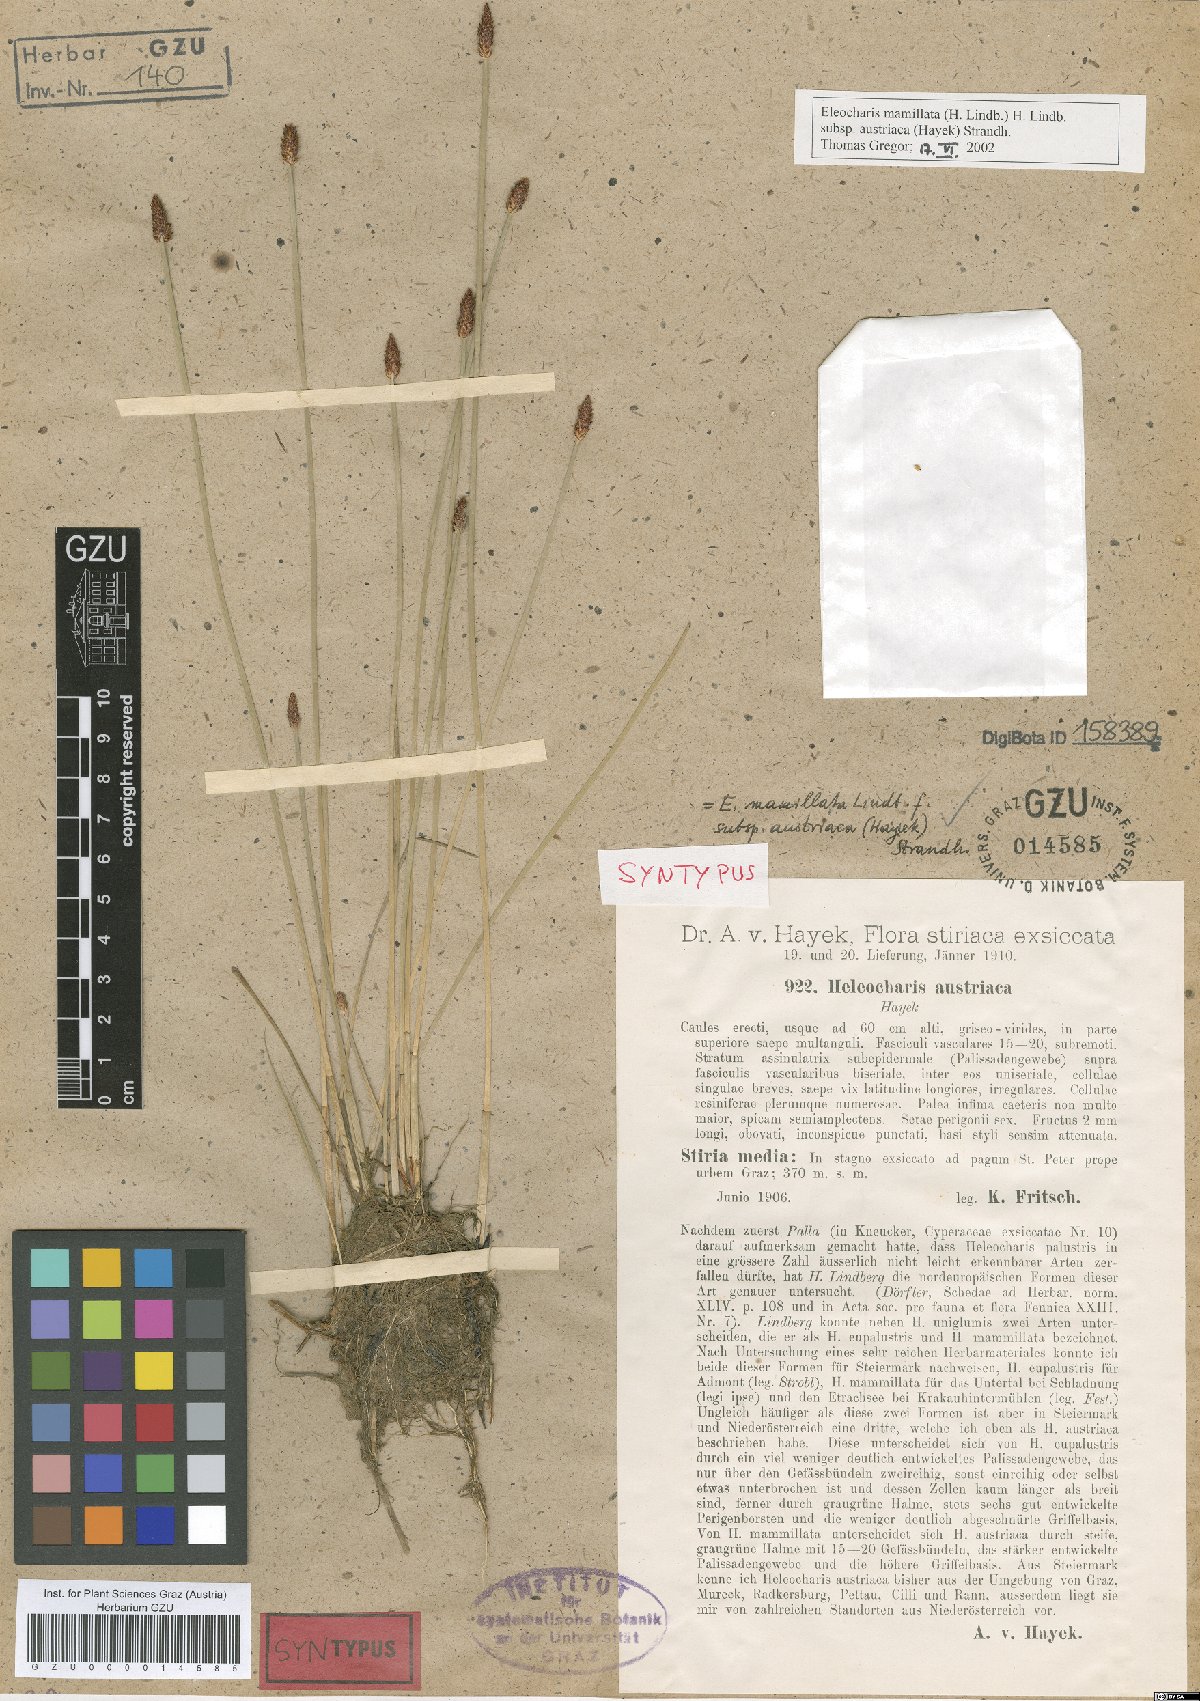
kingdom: Plantae
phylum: Tracheophyta
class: Liliopsida
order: Poales
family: Cyperaceae
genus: Eleocharis
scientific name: Eleocharis mamillata
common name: Northern spike-rush
